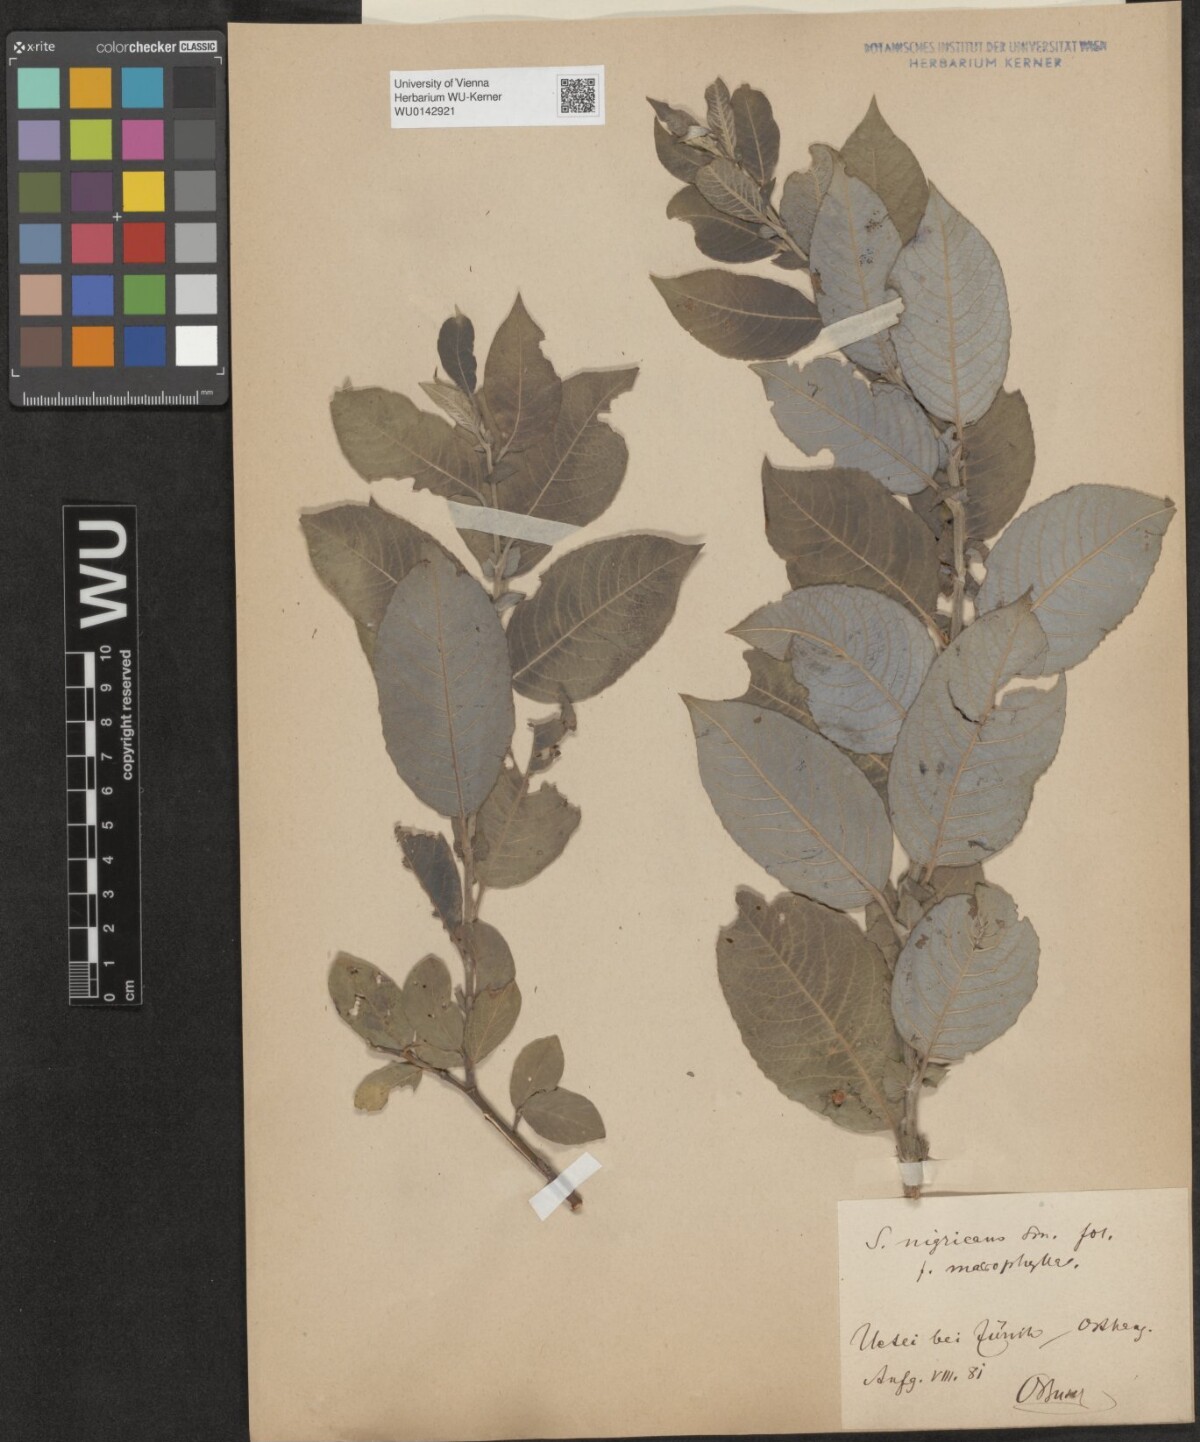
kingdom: Plantae
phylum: Tracheophyta
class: Magnoliopsida
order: Malpighiales
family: Salicaceae
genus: Salix
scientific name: Salix myrsinifolia
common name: Dark-leaved willow
